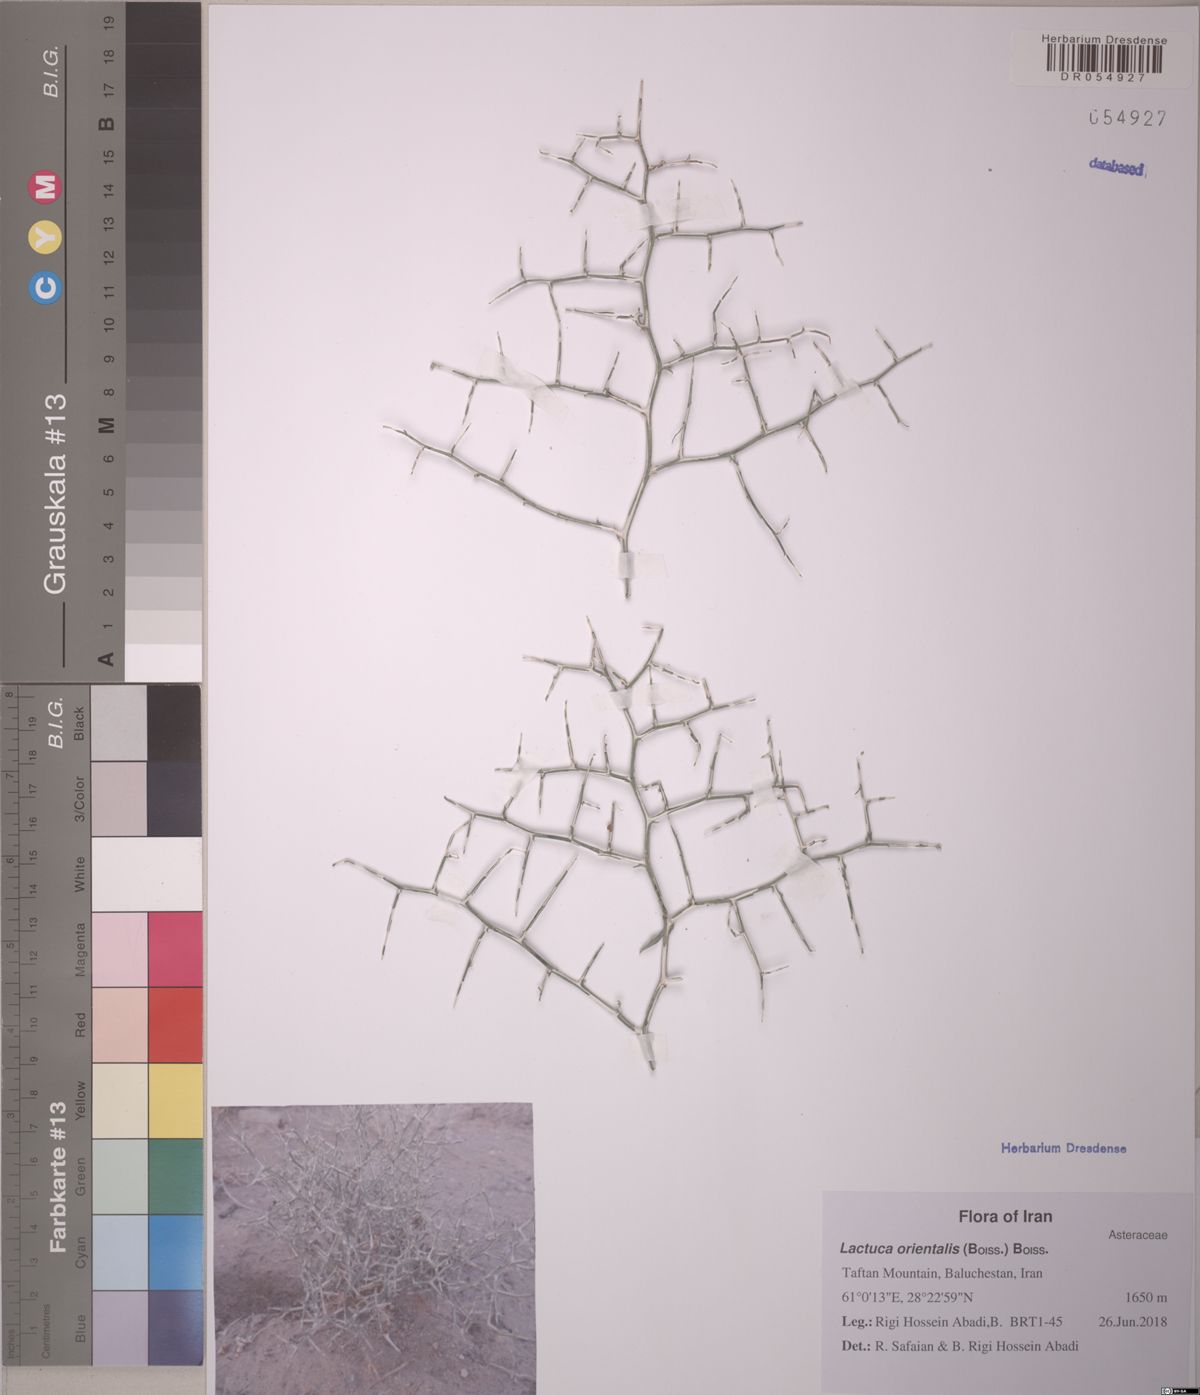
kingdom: Plantae
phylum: Tracheophyta
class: Magnoliopsida
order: Asterales
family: Asteraceae
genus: Lactuca
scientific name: Lactuca orientalis
